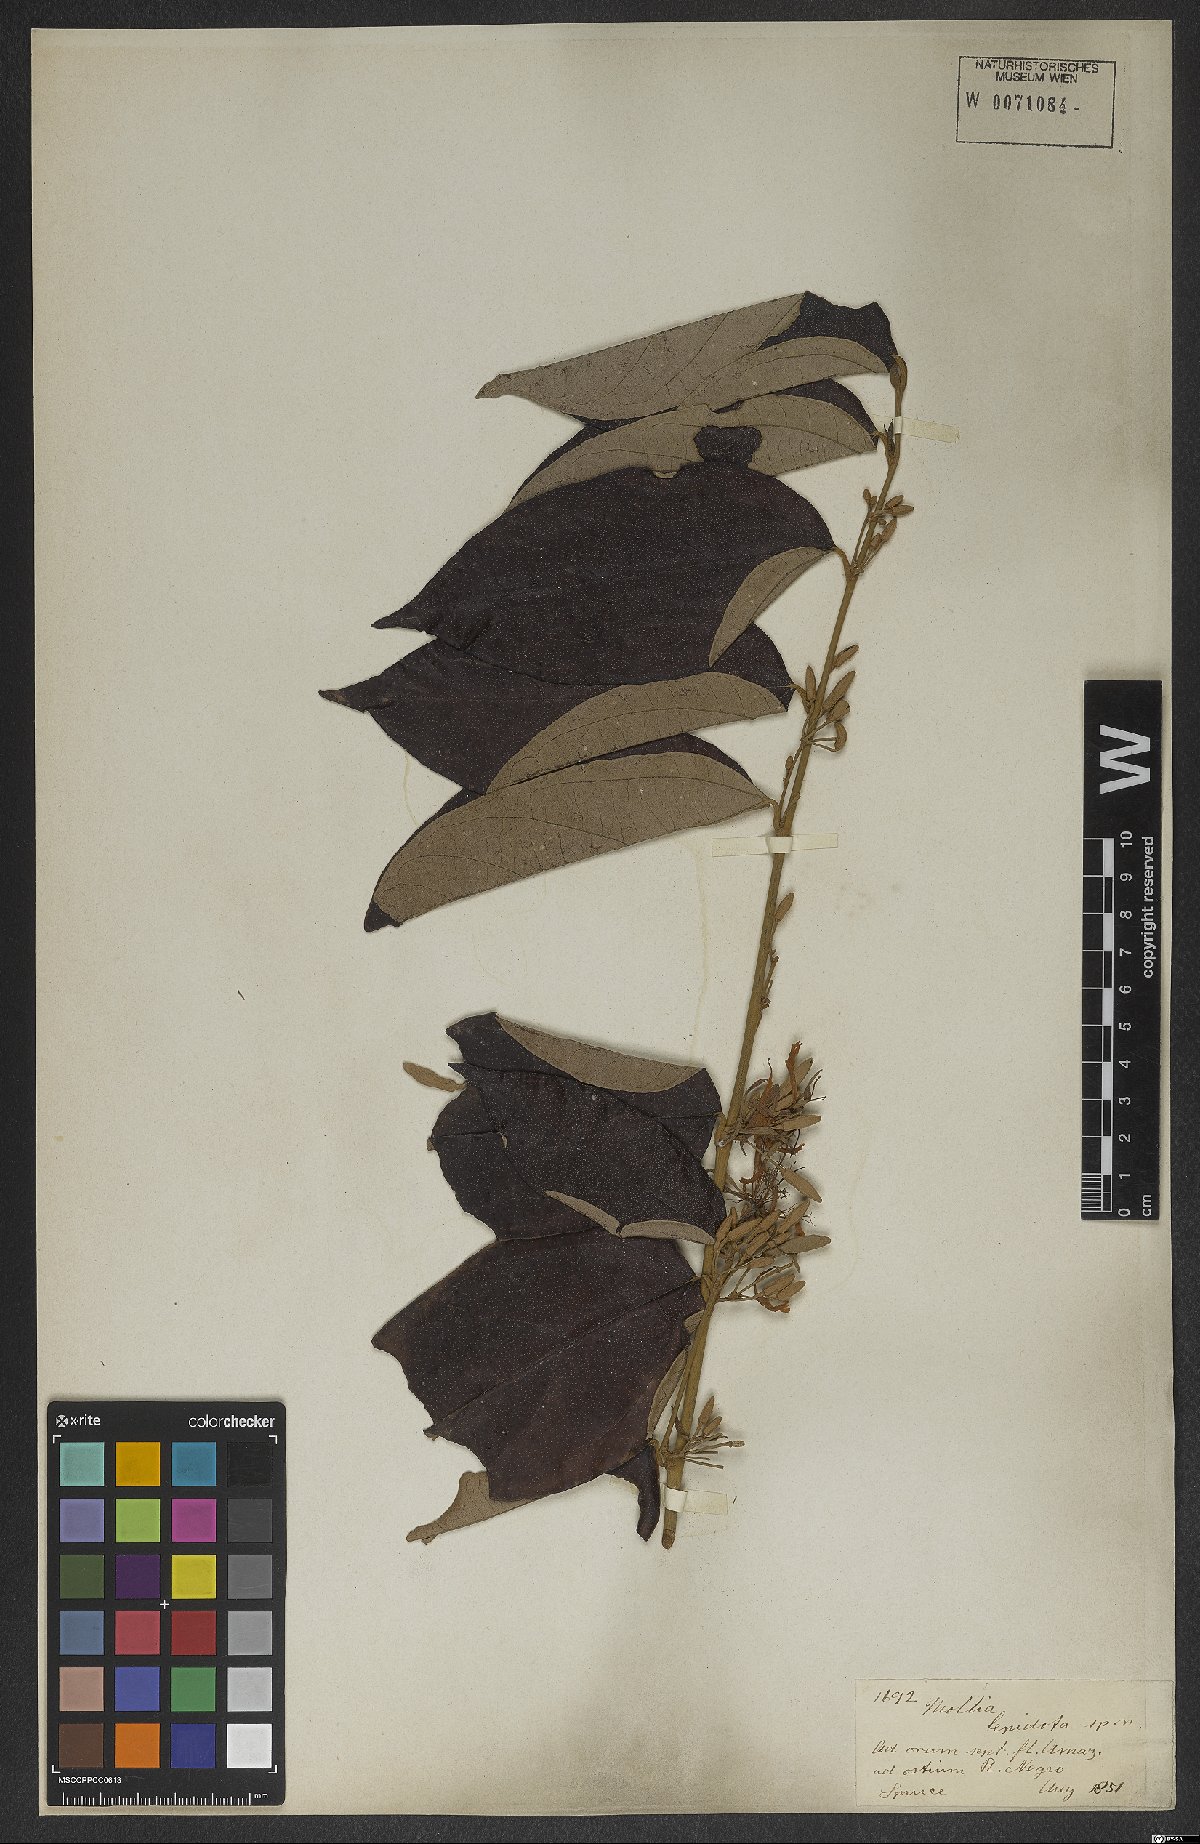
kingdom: Plantae
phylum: Tracheophyta
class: Magnoliopsida
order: Malvales
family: Malvaceae
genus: Mollia
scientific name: Mollia speciosa
